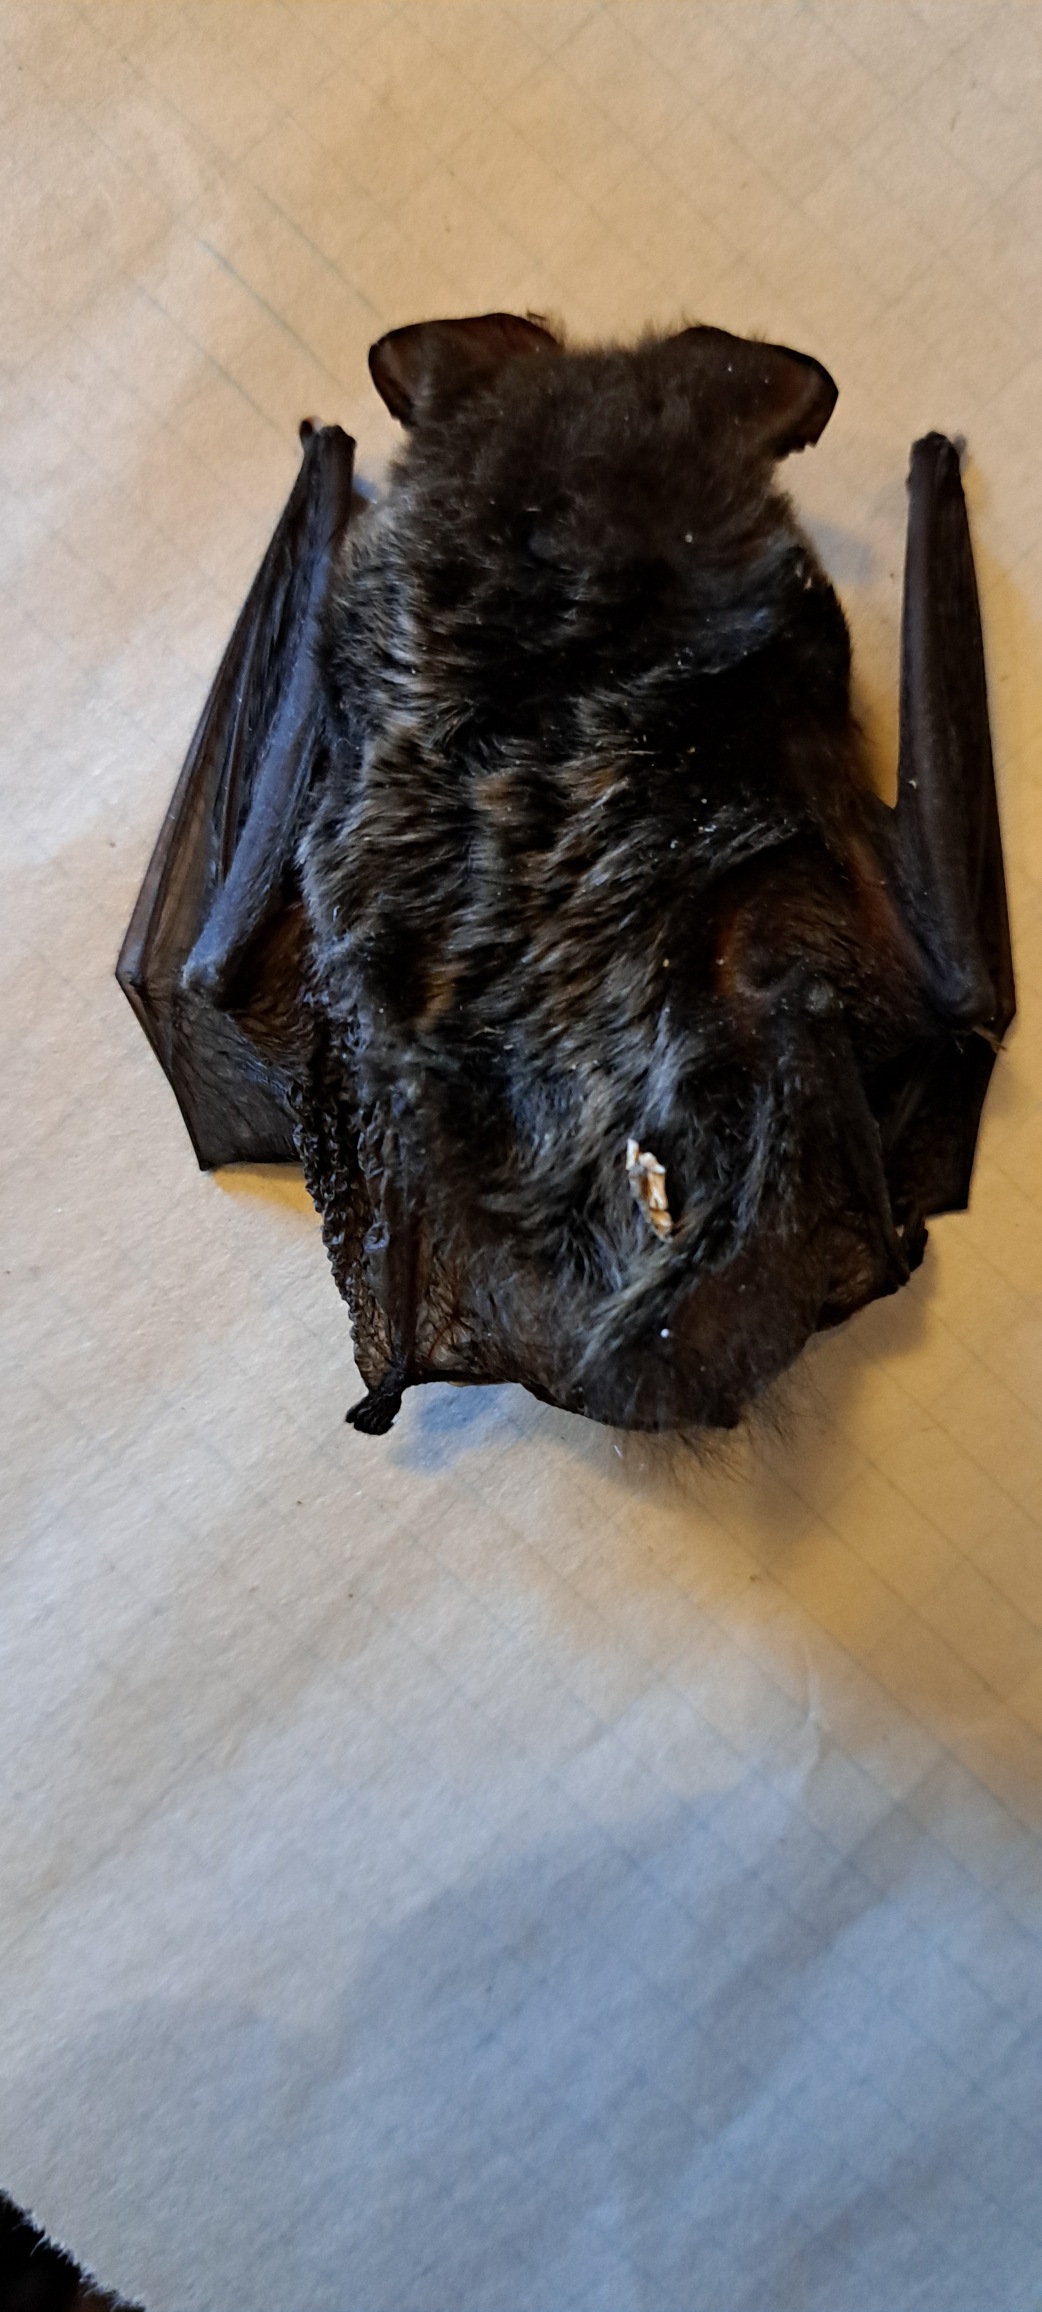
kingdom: Animalia
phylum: Chordata
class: Mammalia
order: Chiroptera
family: Vespertilionidae
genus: Barbastella
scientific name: Barbastella barbastellus
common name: Bredøret flagermus
